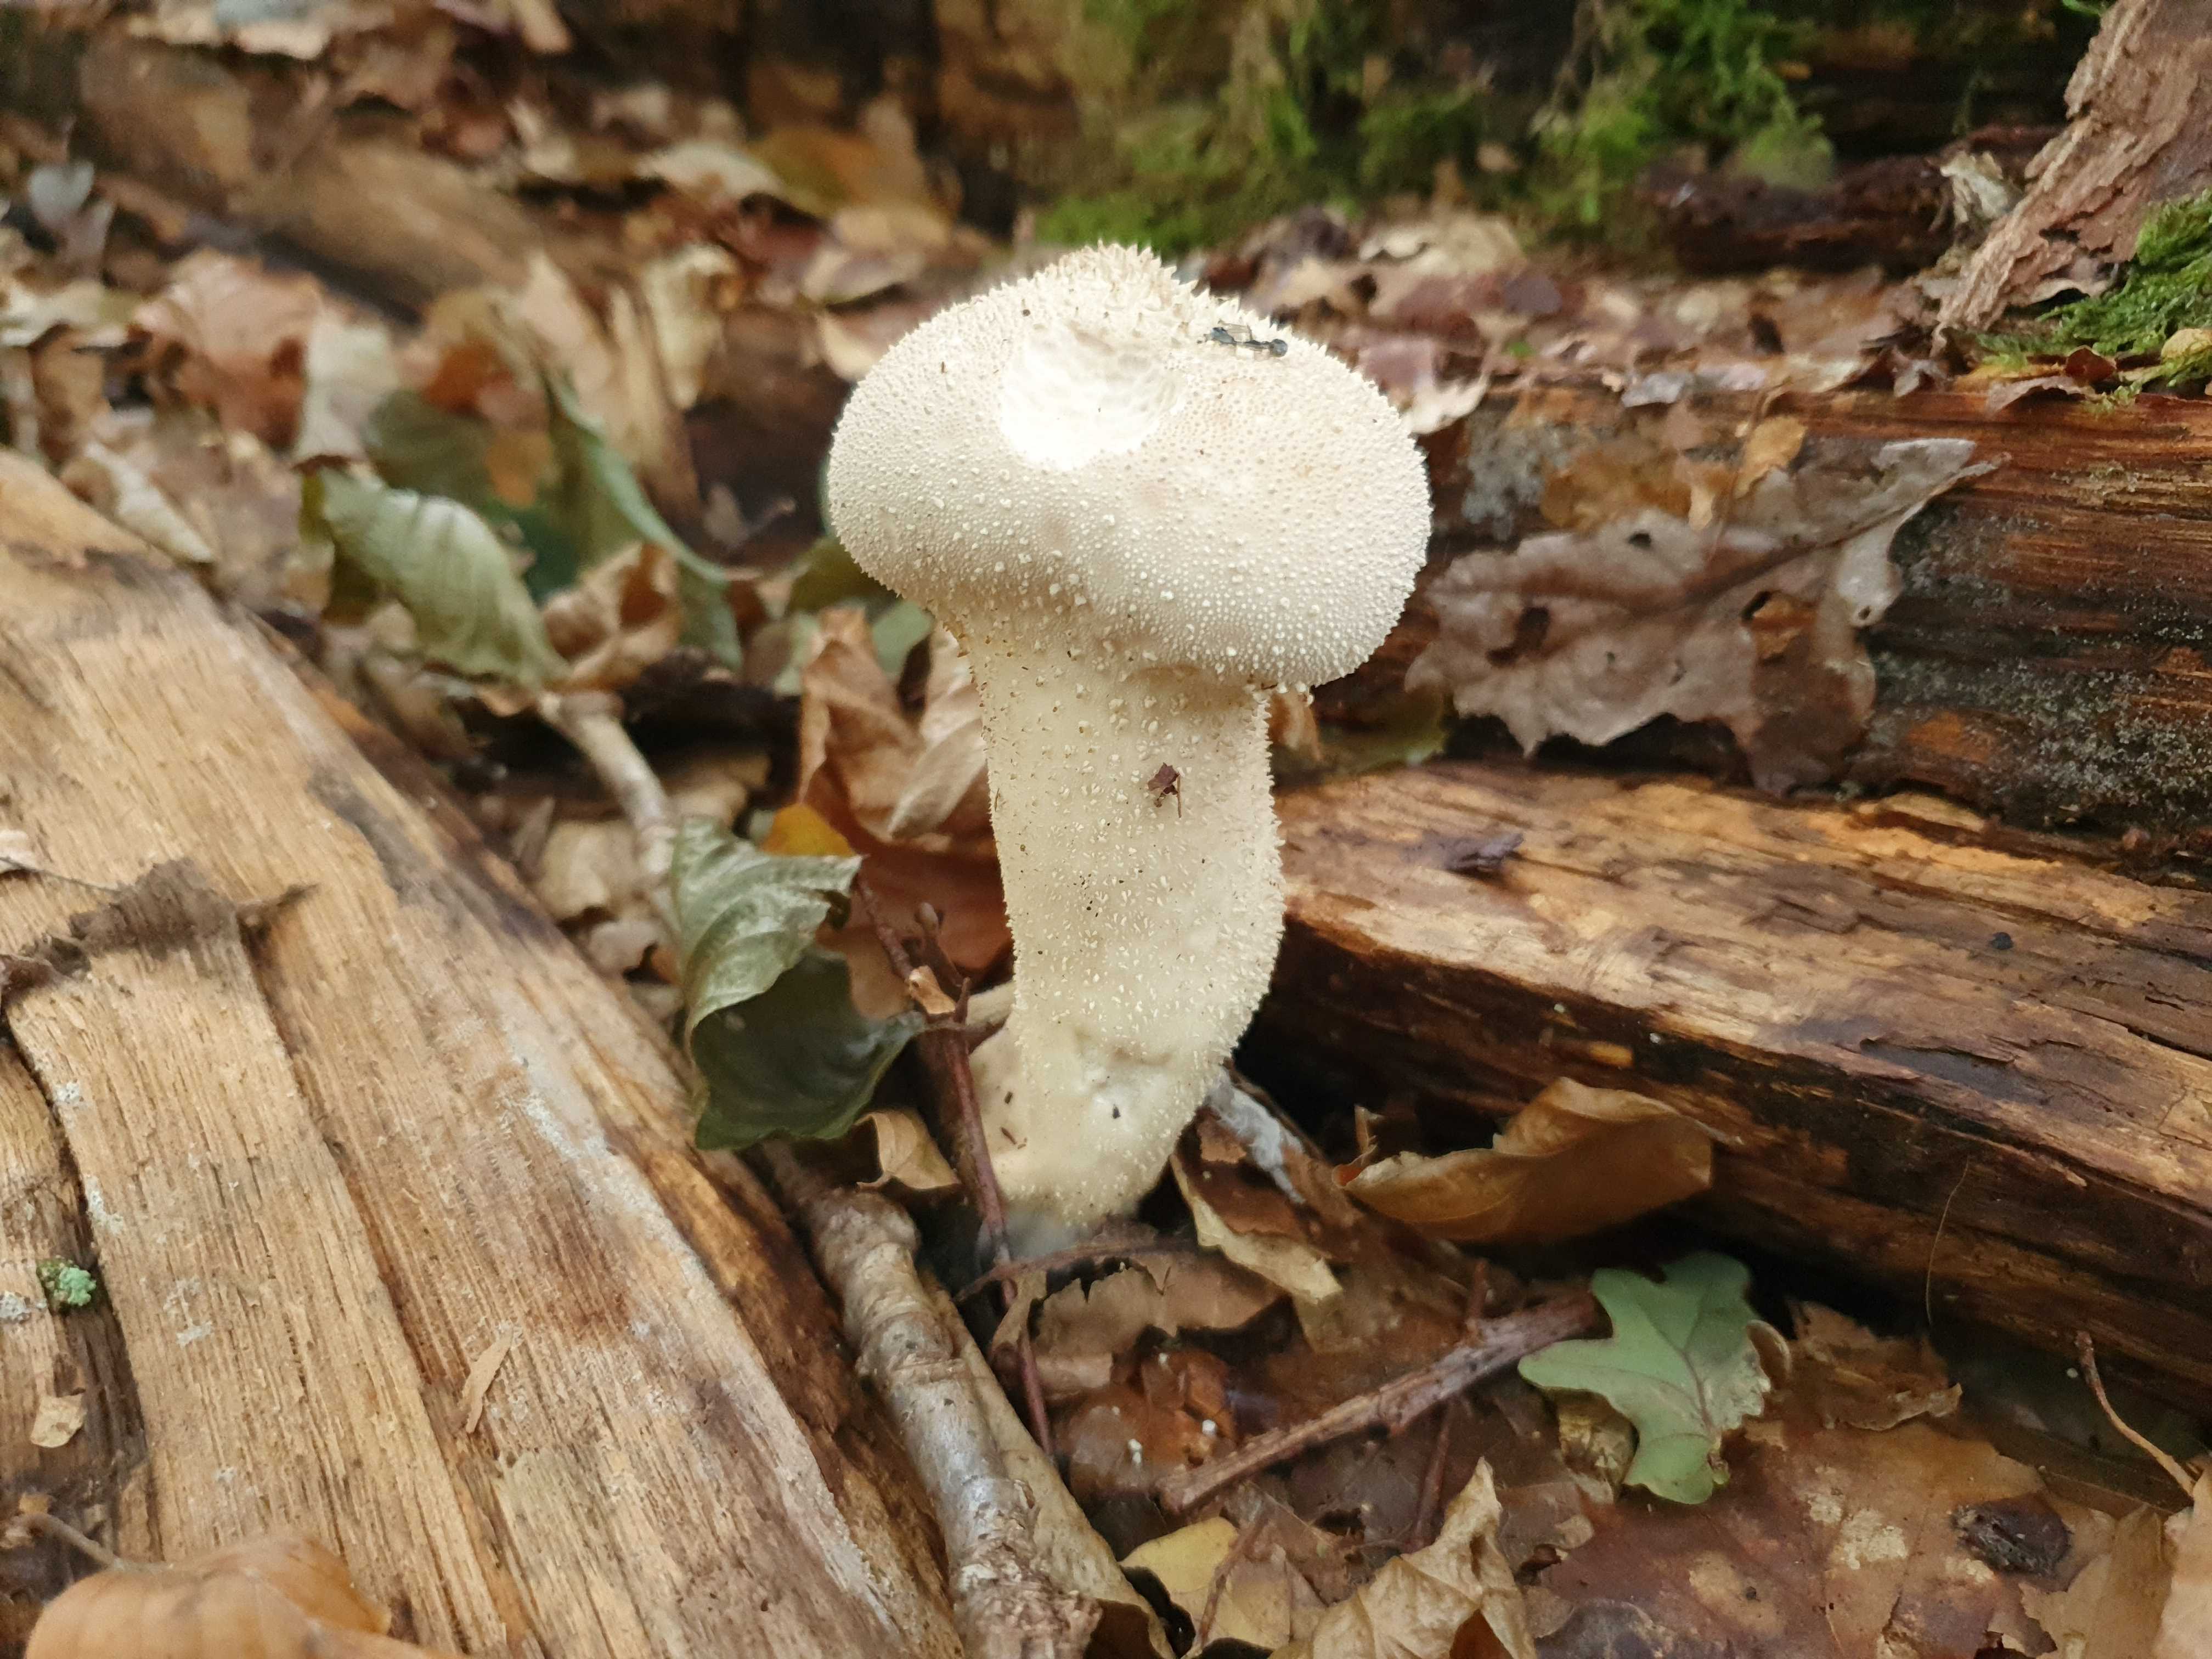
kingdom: Fungi
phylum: Basidiomycota
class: Agaricomycetes
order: Agaricales
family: Lycoperdaceae
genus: Lycoperdon
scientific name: Lycoperdon excipuliforme
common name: højstokket støvbold
